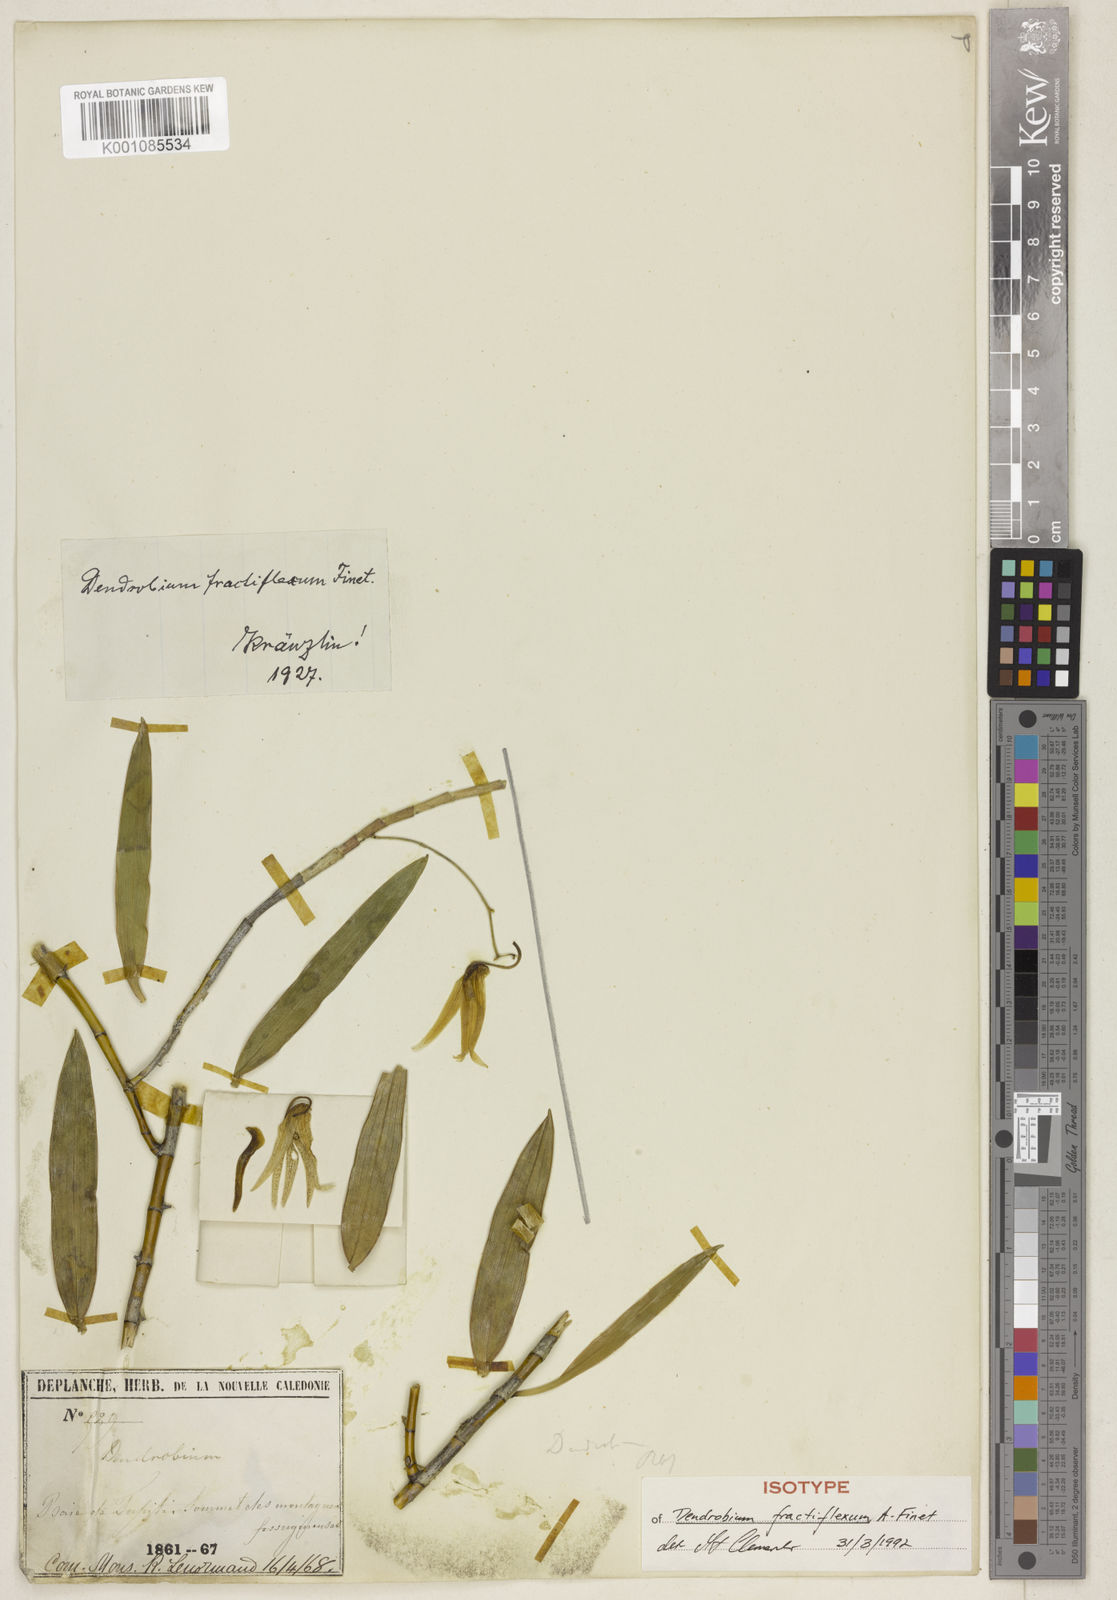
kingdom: Plantae
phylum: Tracheophyta
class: Liliopsida
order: Asparagales
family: Orchidaceae
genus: Dendrobium
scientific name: Dendrobium fractiflexum
